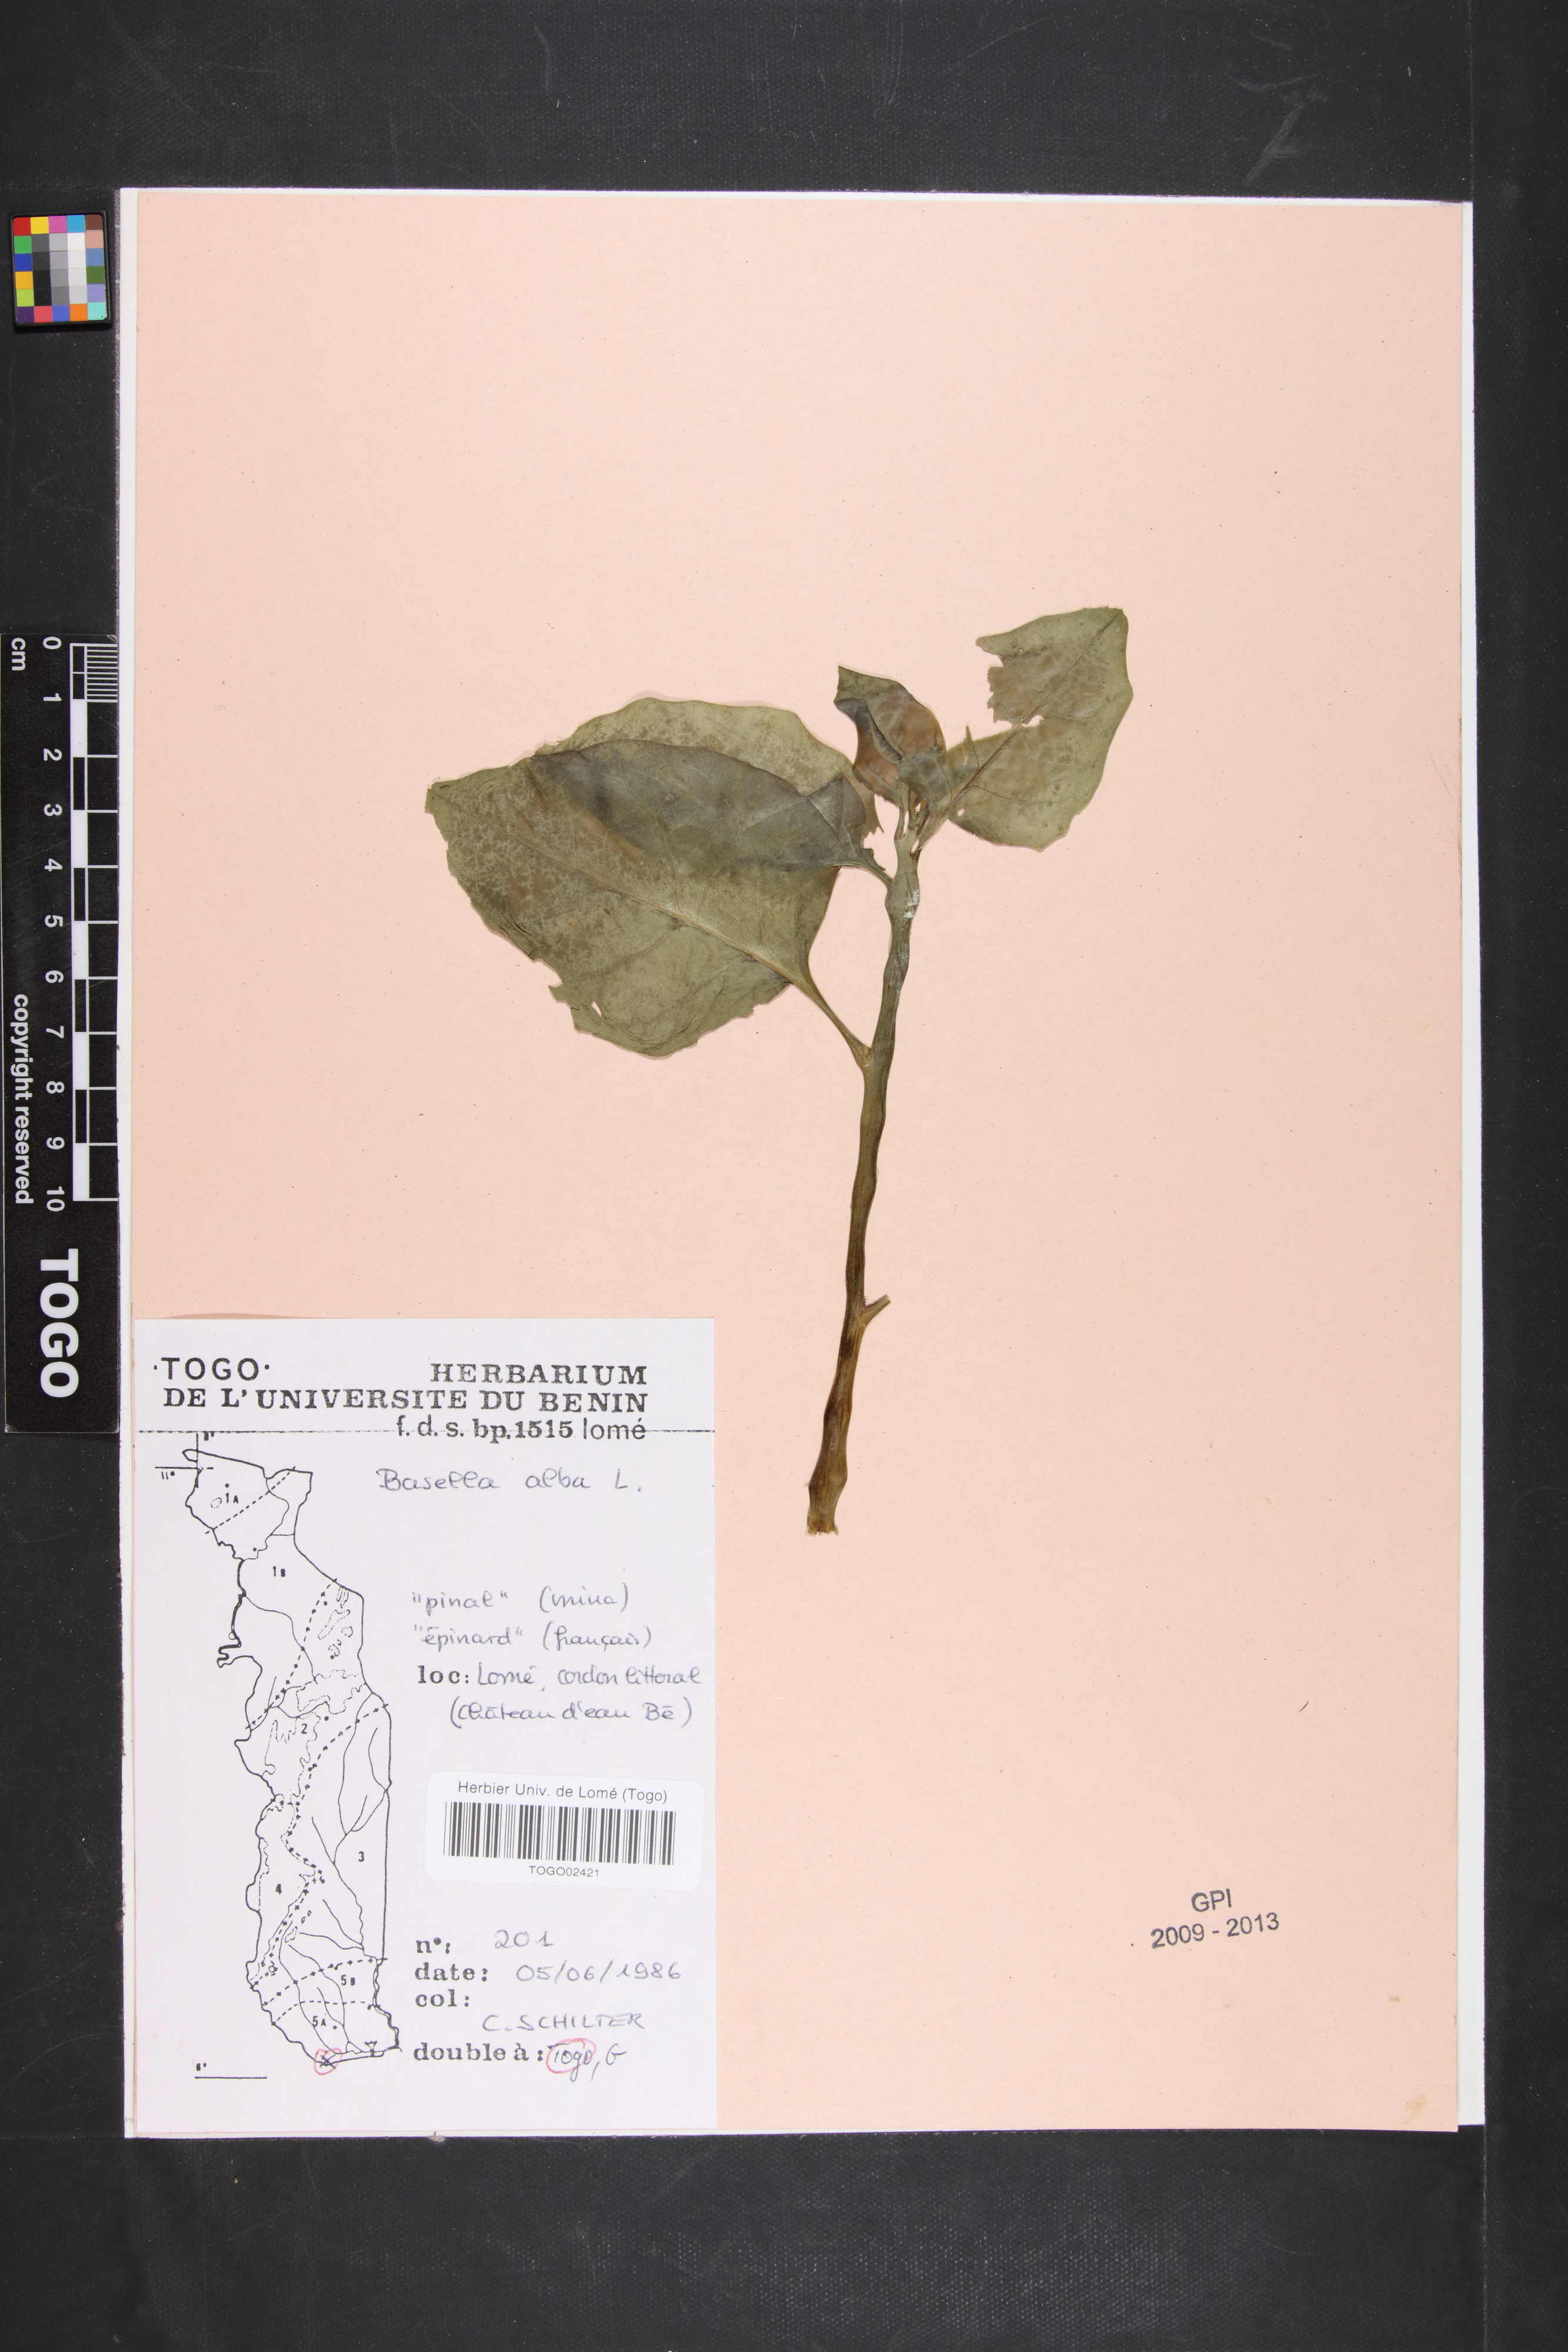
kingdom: Plantae
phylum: Tracheophyta
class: Magnoliopsida
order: Caryophyllales
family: Basellaceae
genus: Basella
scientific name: Basella alba
